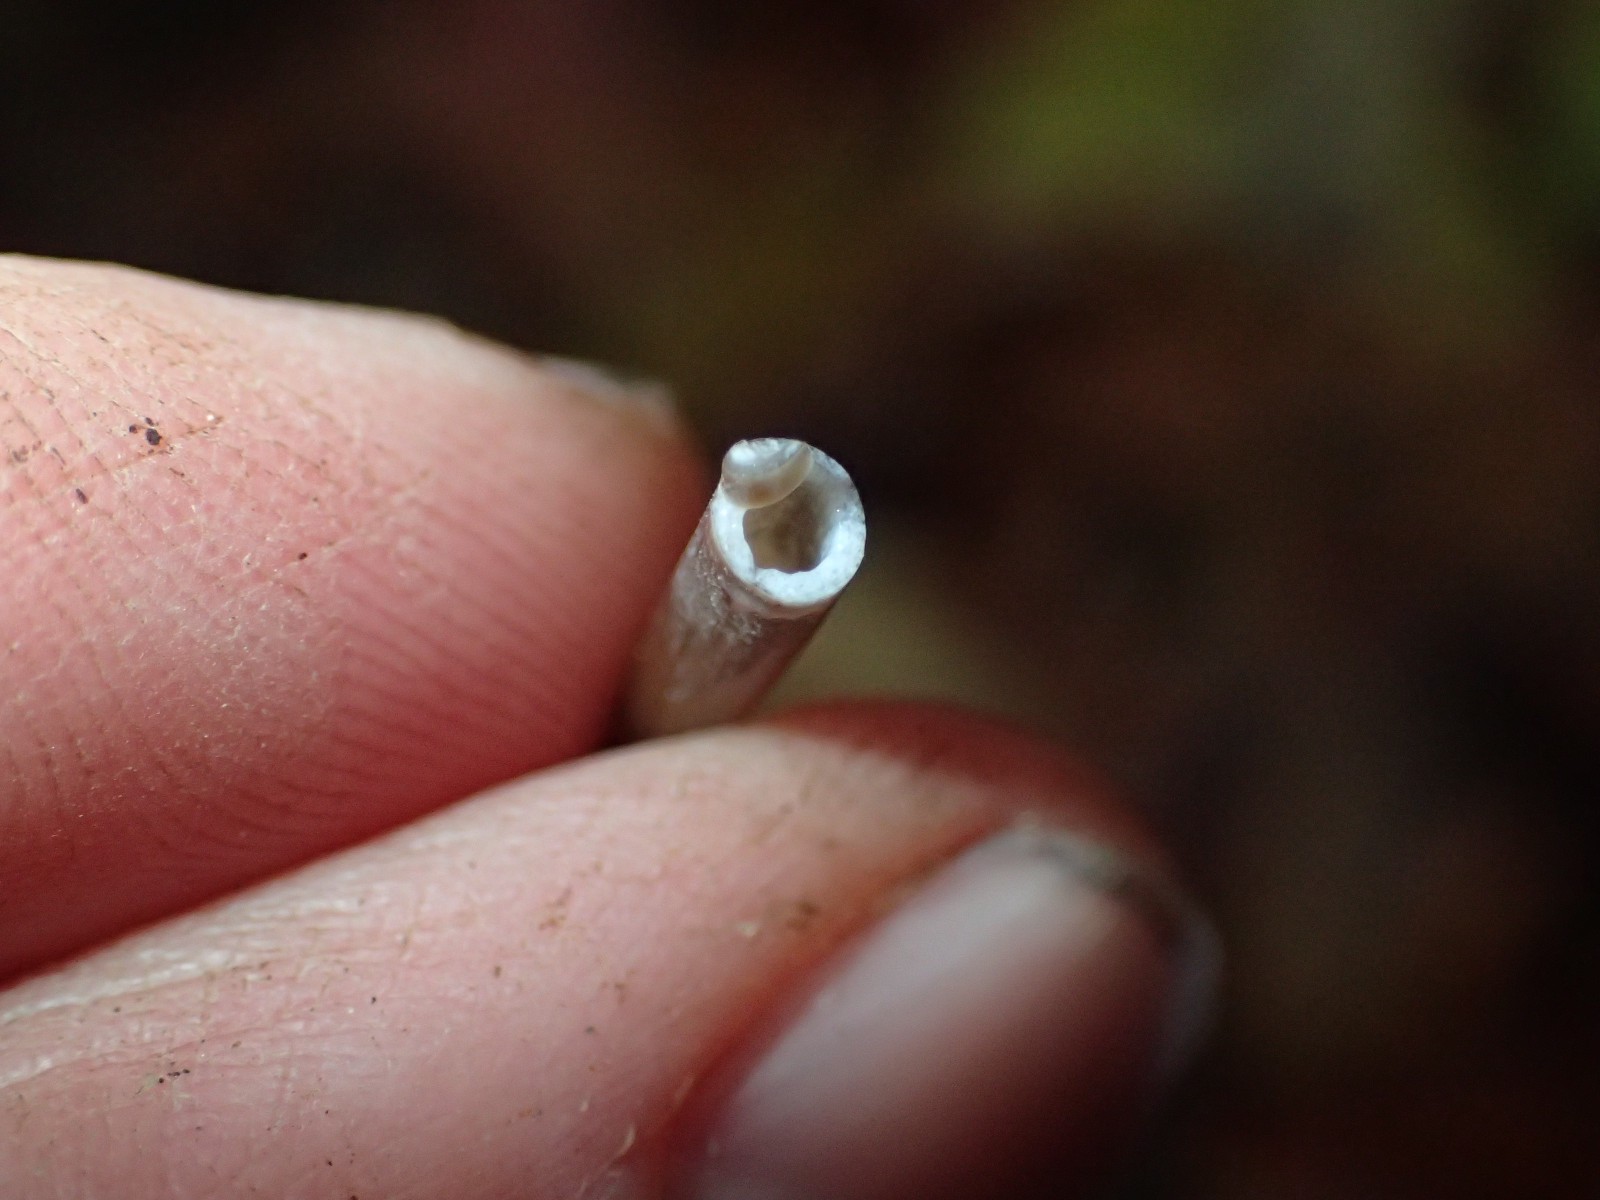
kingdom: Fungi
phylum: Basidiomycota
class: Agaricomycetes
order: Agaricales
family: Mycenaceae
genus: Mycena
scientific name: Mycena galopus
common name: hvidmælket huesvamp
